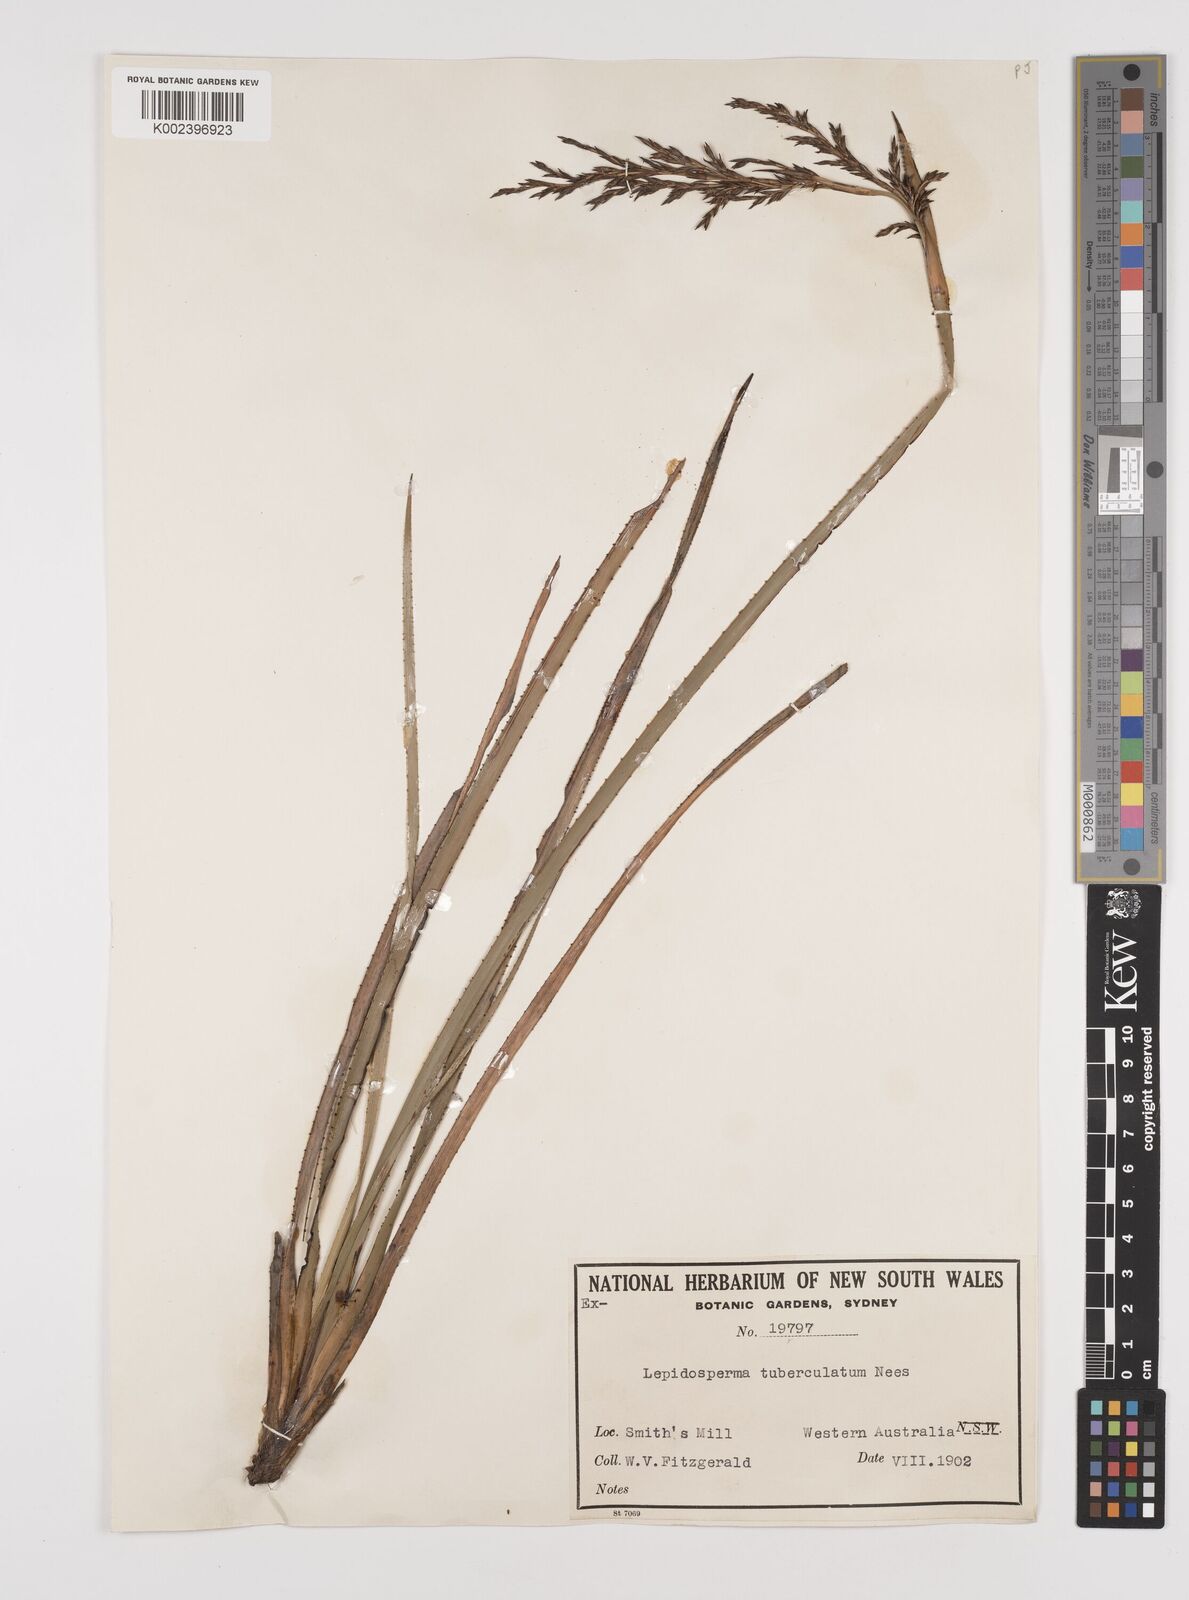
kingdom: Plantae
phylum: Tracheophyta
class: Liliopsida
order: Poales
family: Cyperaceae
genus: Lepidosperma
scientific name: Lepidosperma tuberculatum
